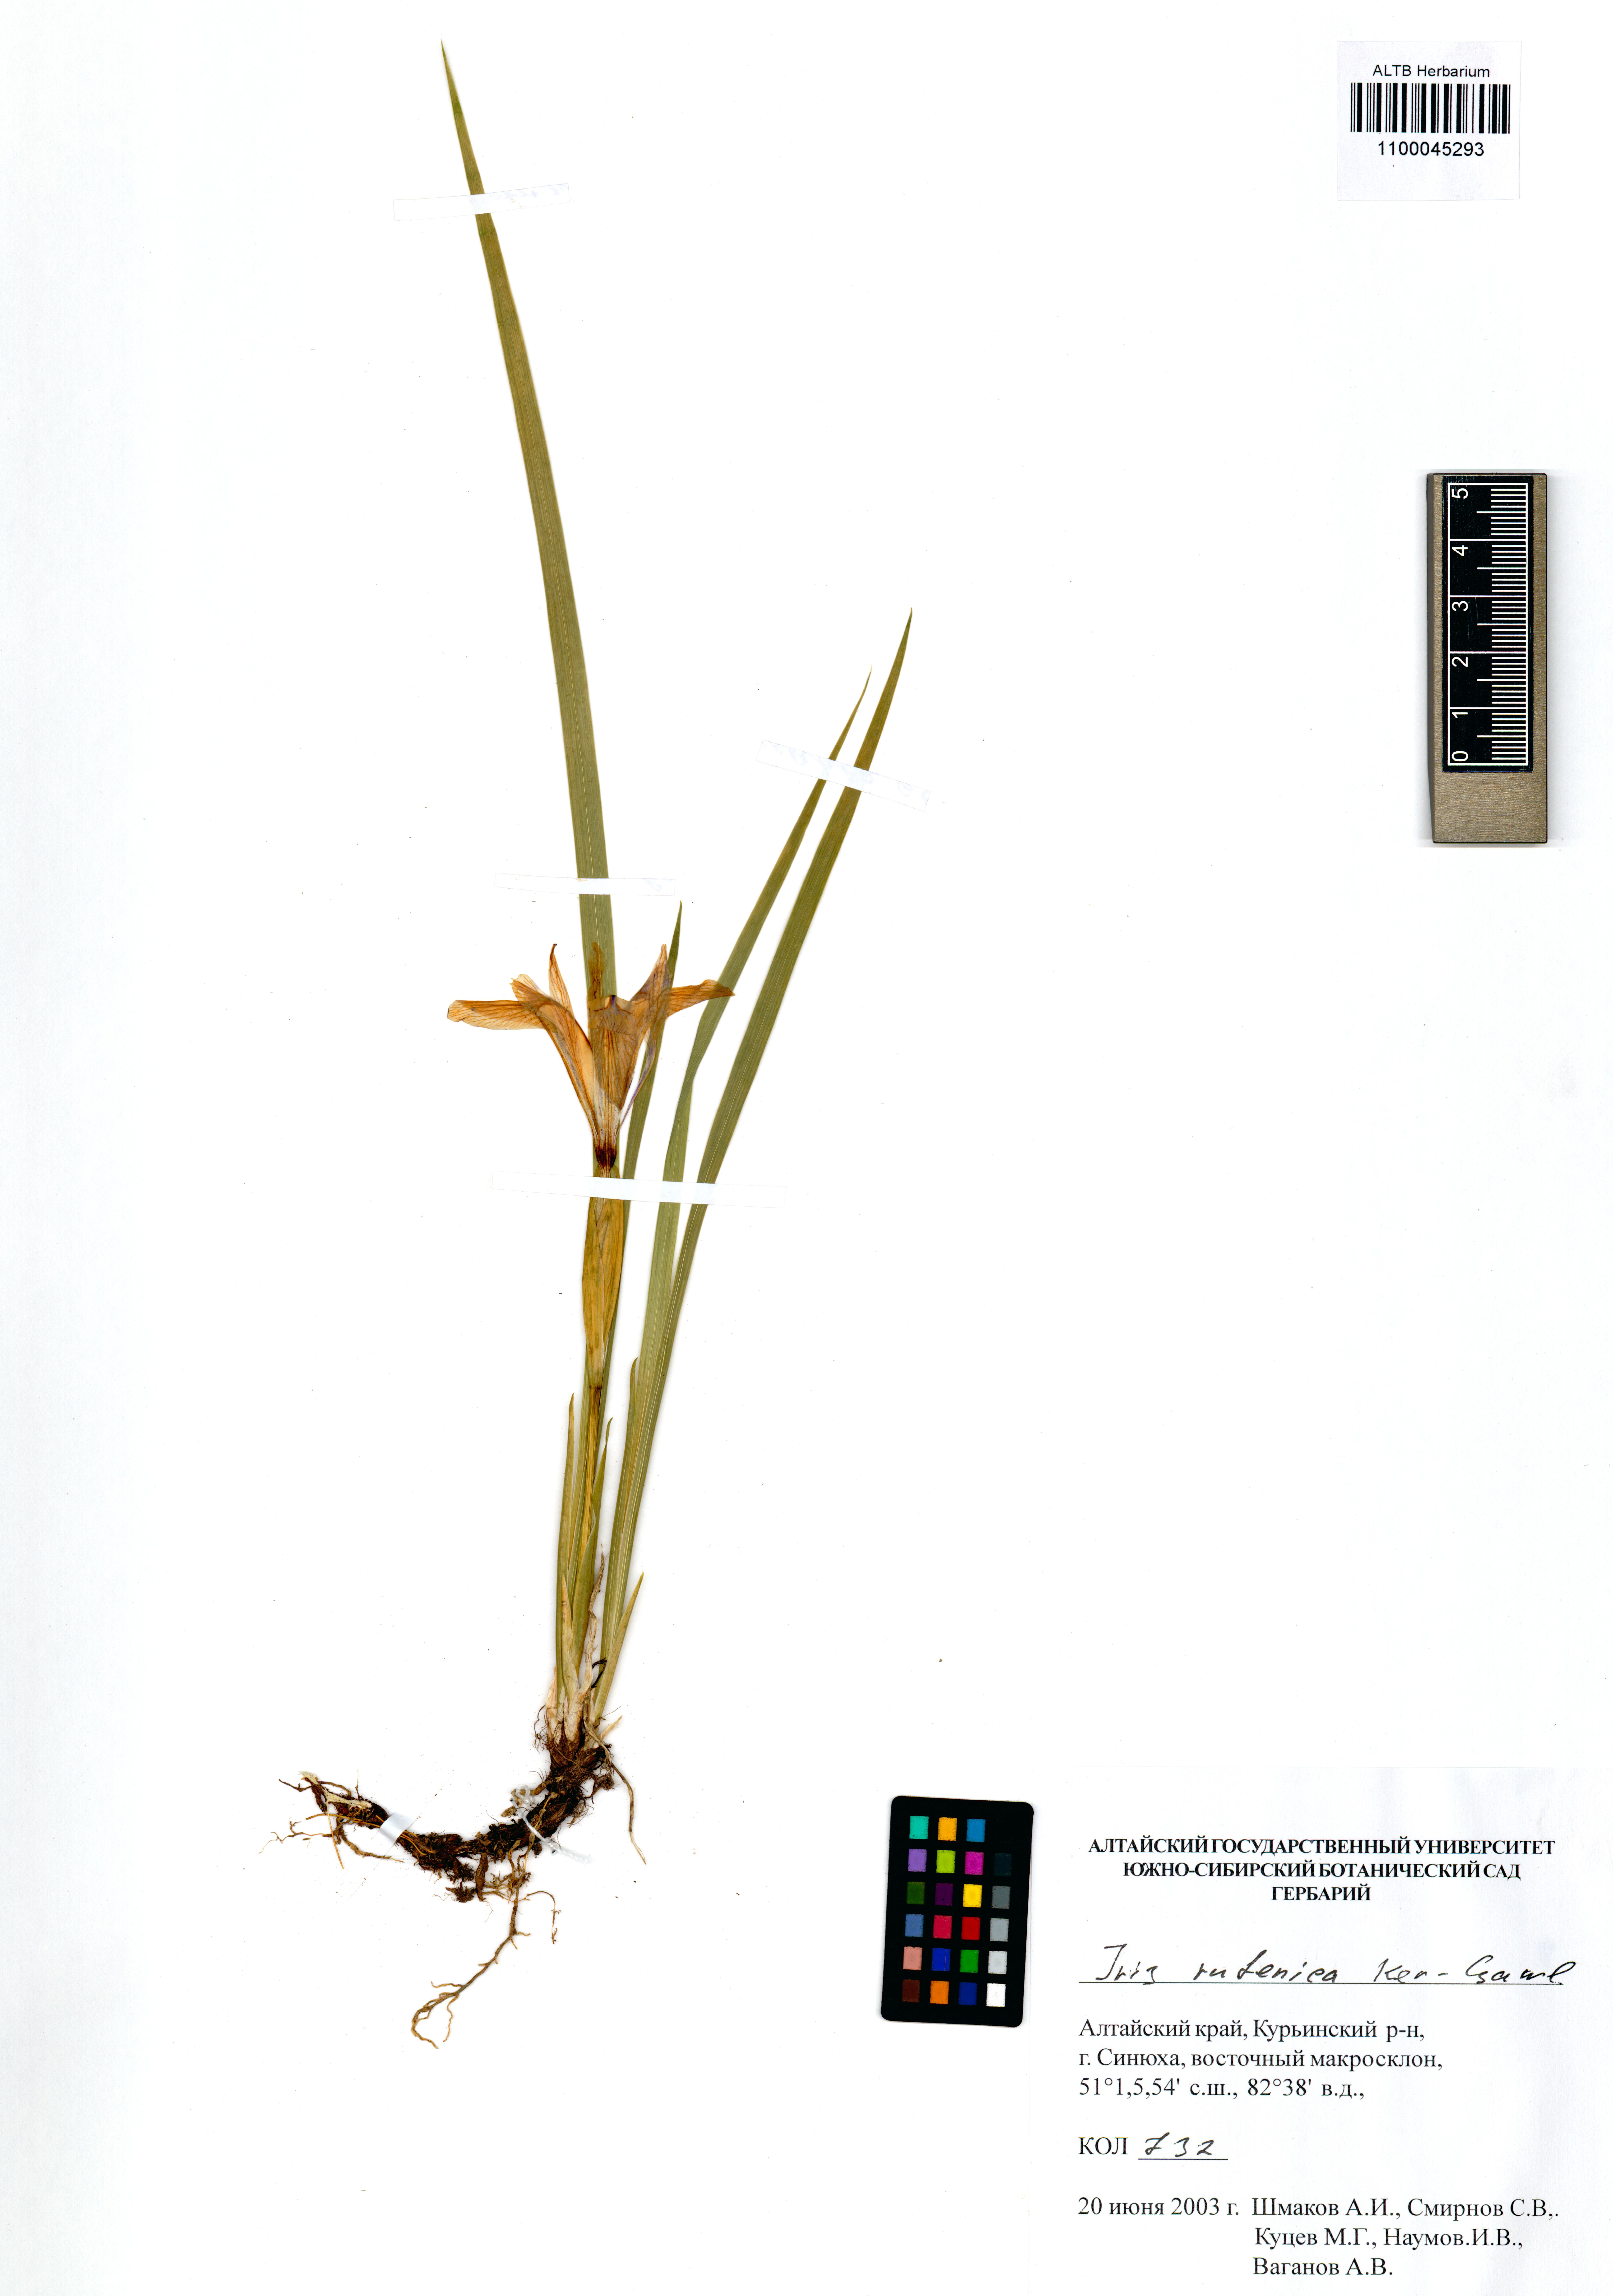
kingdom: Plantae
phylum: Tracheophyta
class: Liliopsida
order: Asparagales
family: Iridaceae
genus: Iris
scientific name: Iris ruthenica
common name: Purple-bract iris
